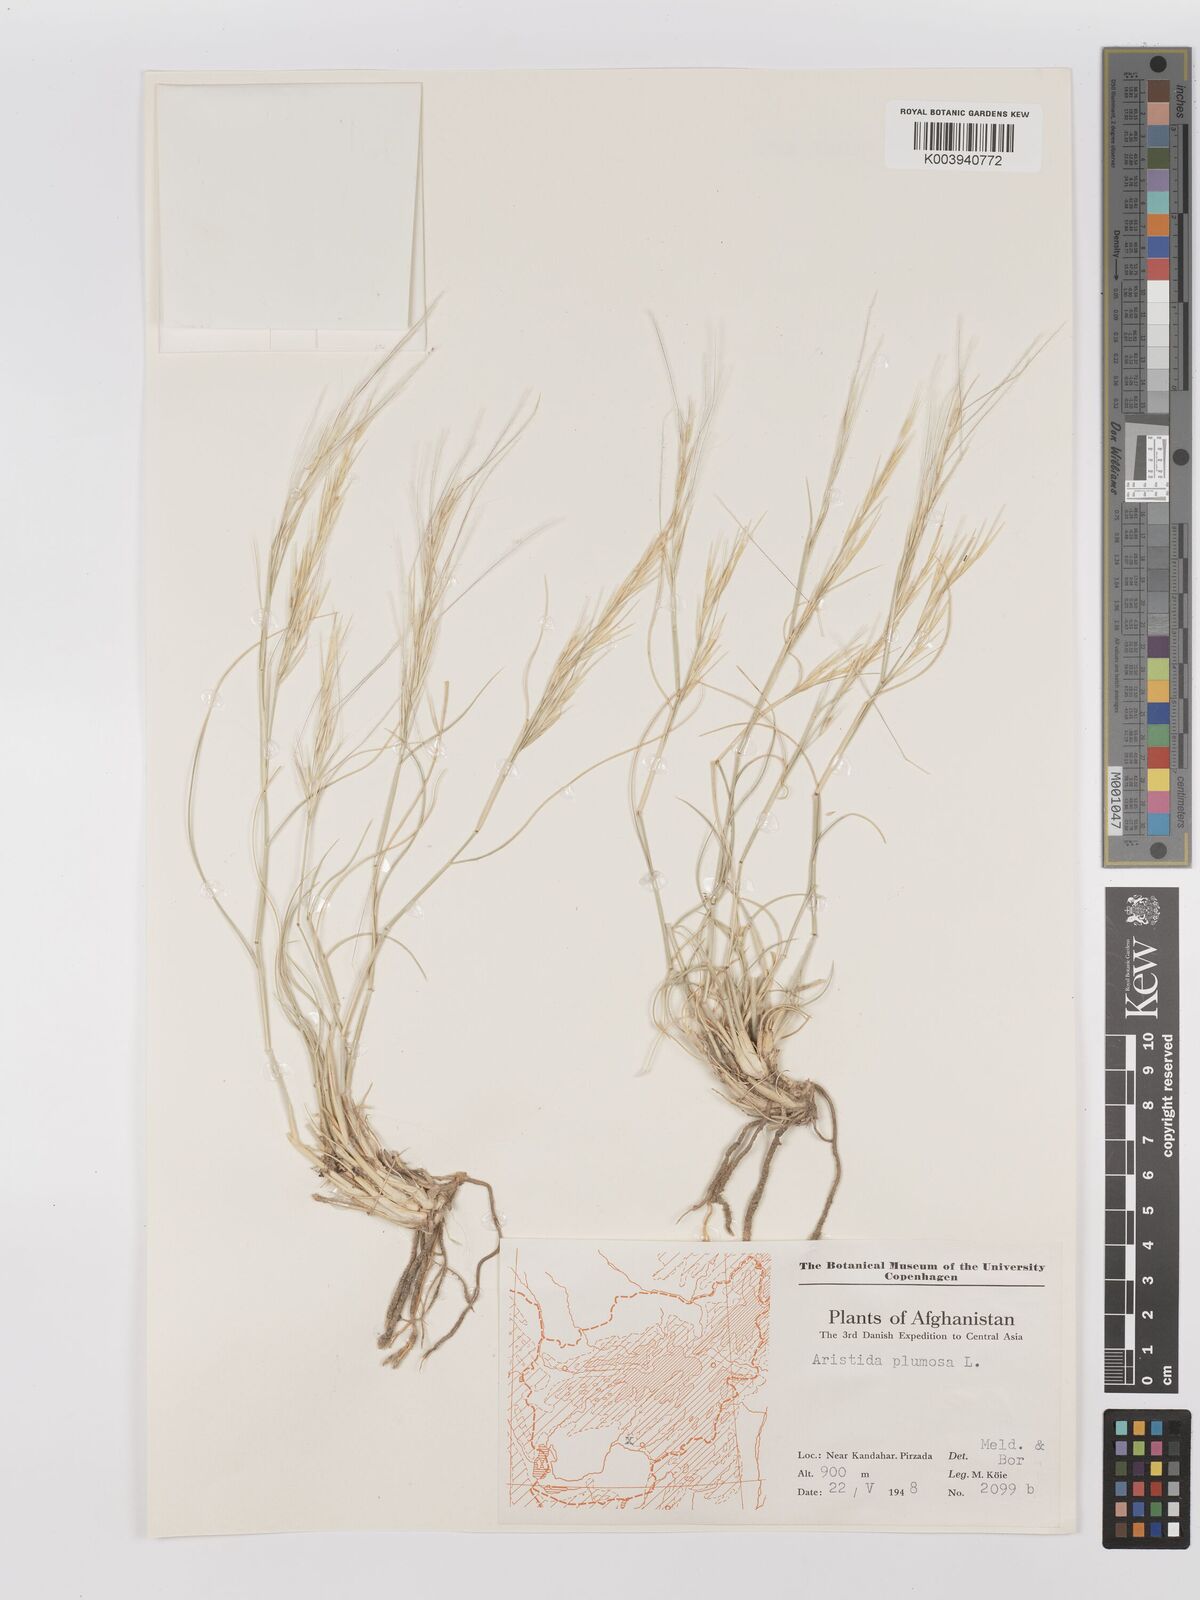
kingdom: Plantae
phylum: Tracheophyta
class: Liliopsida
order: Poales
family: Poaceae
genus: Stipagrostis
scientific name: Stipagrostis plumosa
